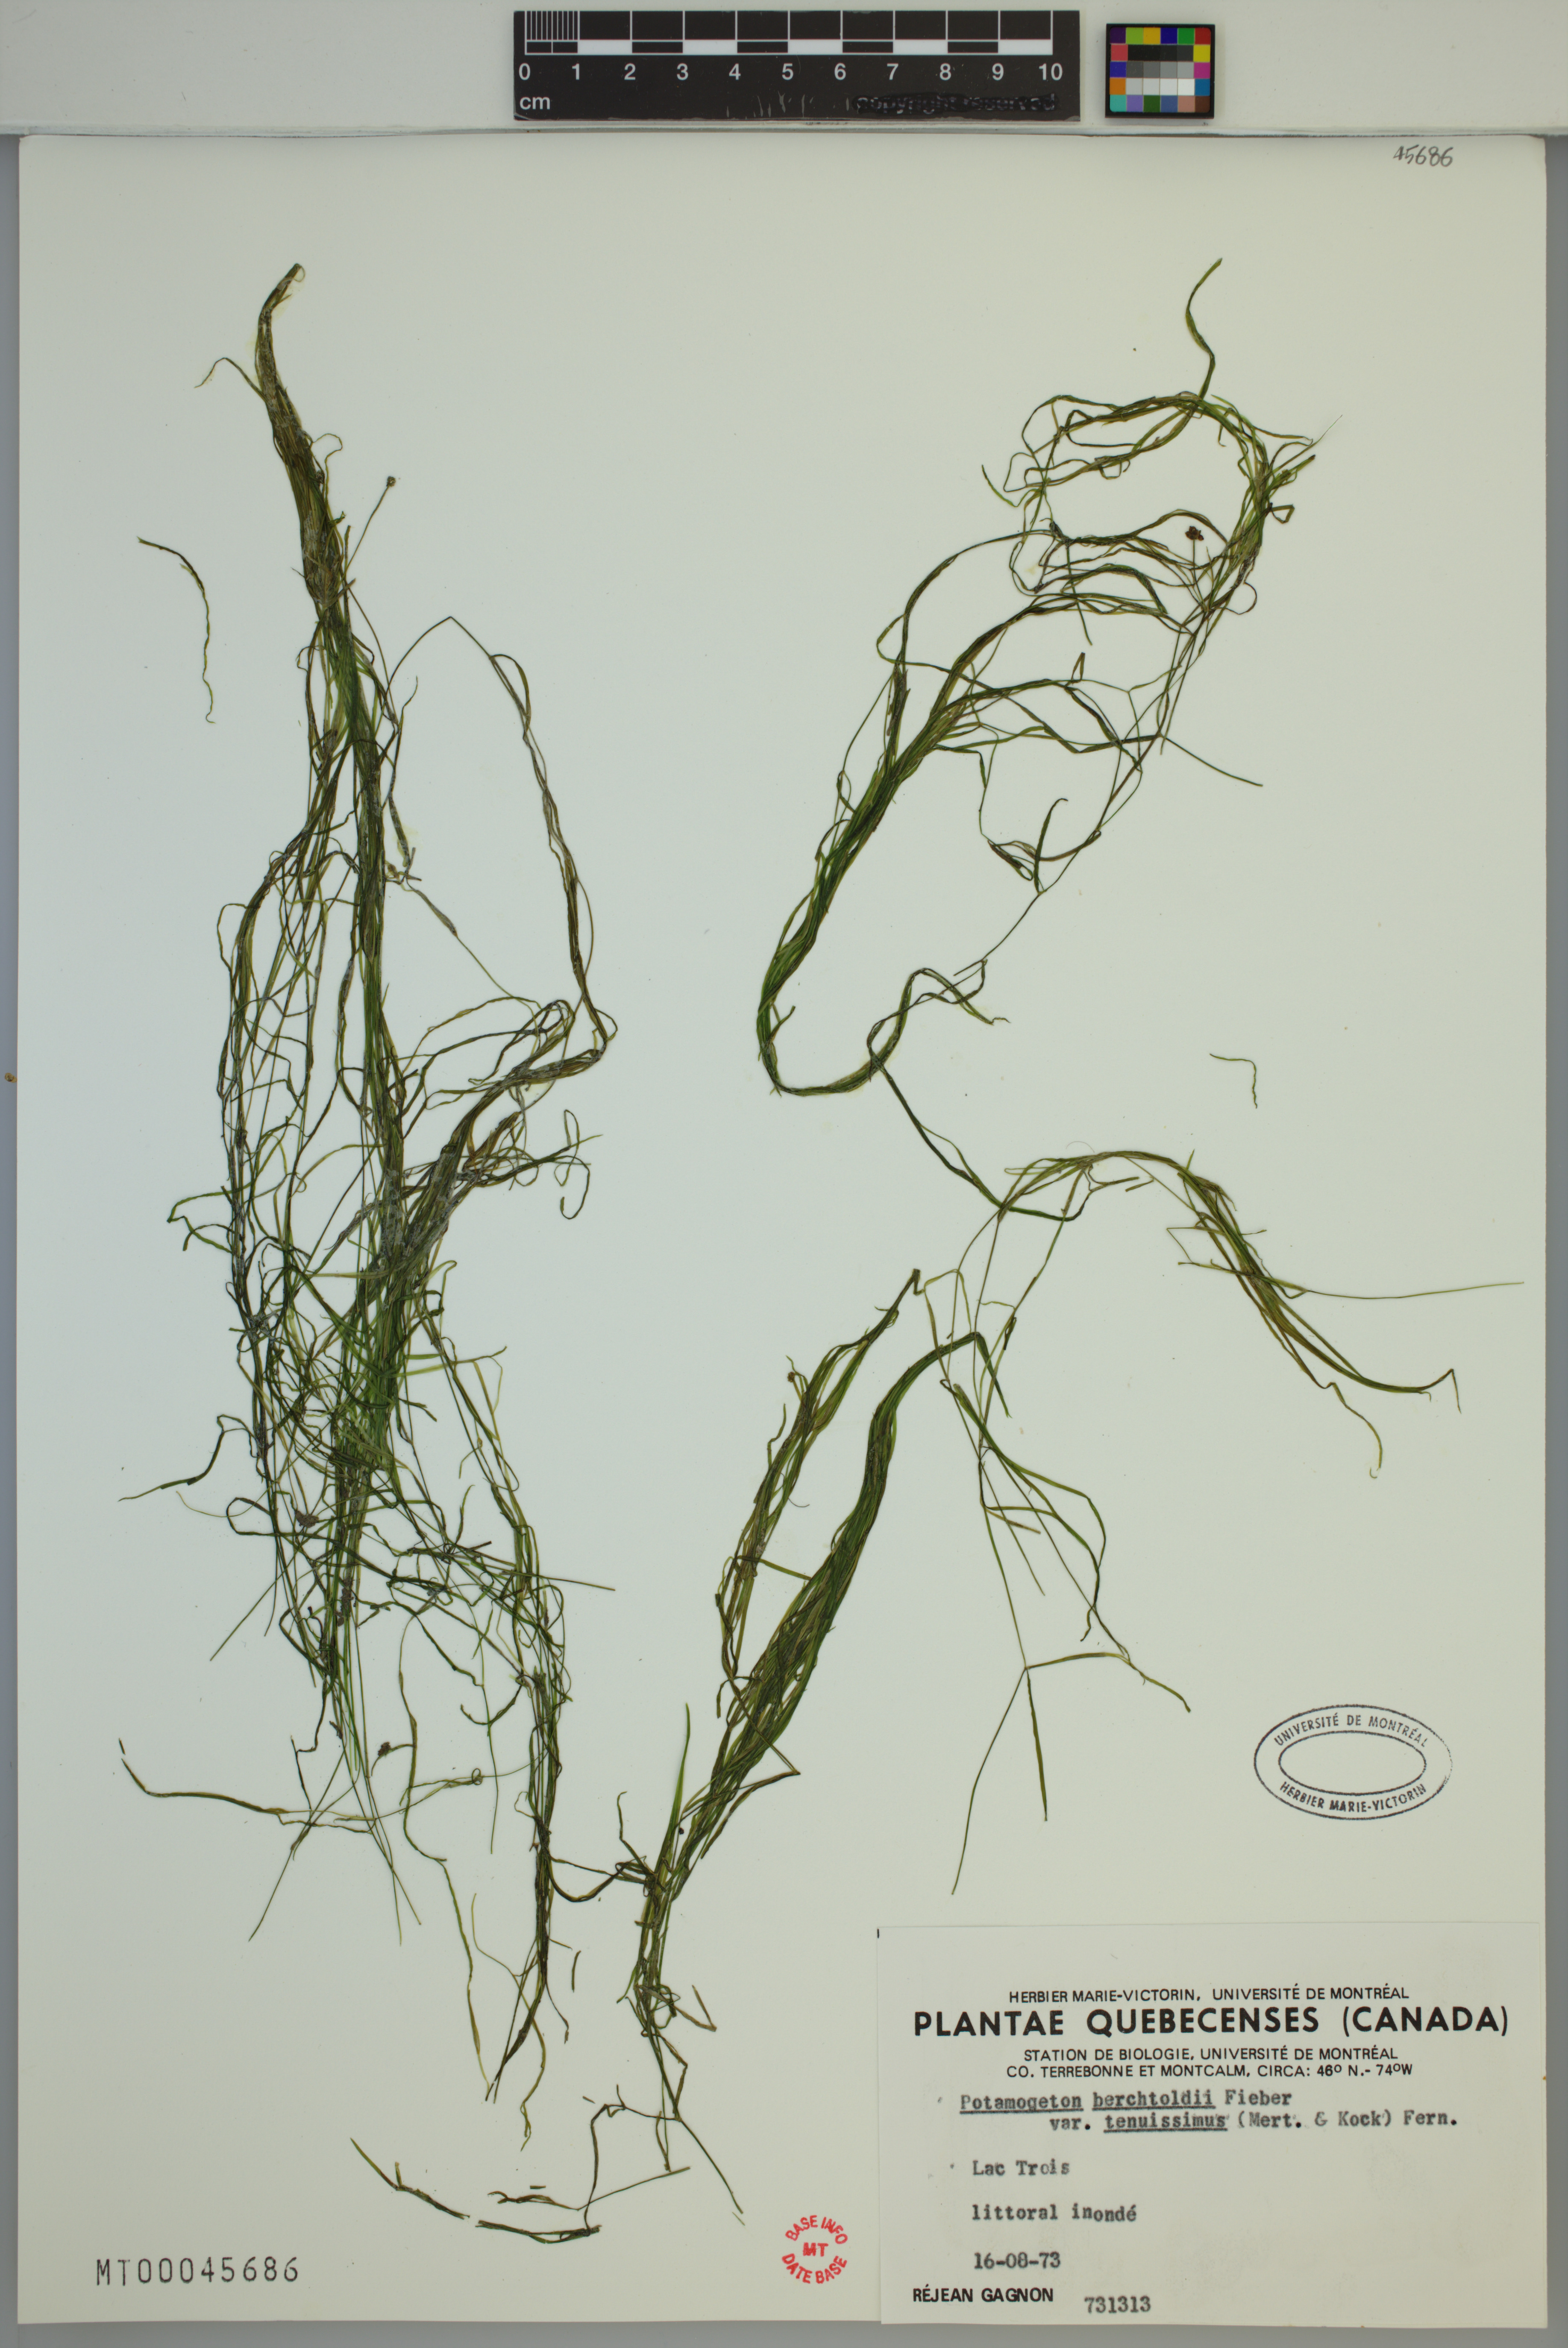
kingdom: Plantae
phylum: Tracheophyta
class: Liliopsida
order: Alismatales
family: Potamogetonaceae
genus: Potamogeton
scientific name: Potamogeton berchtoldii
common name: Small pondweed
